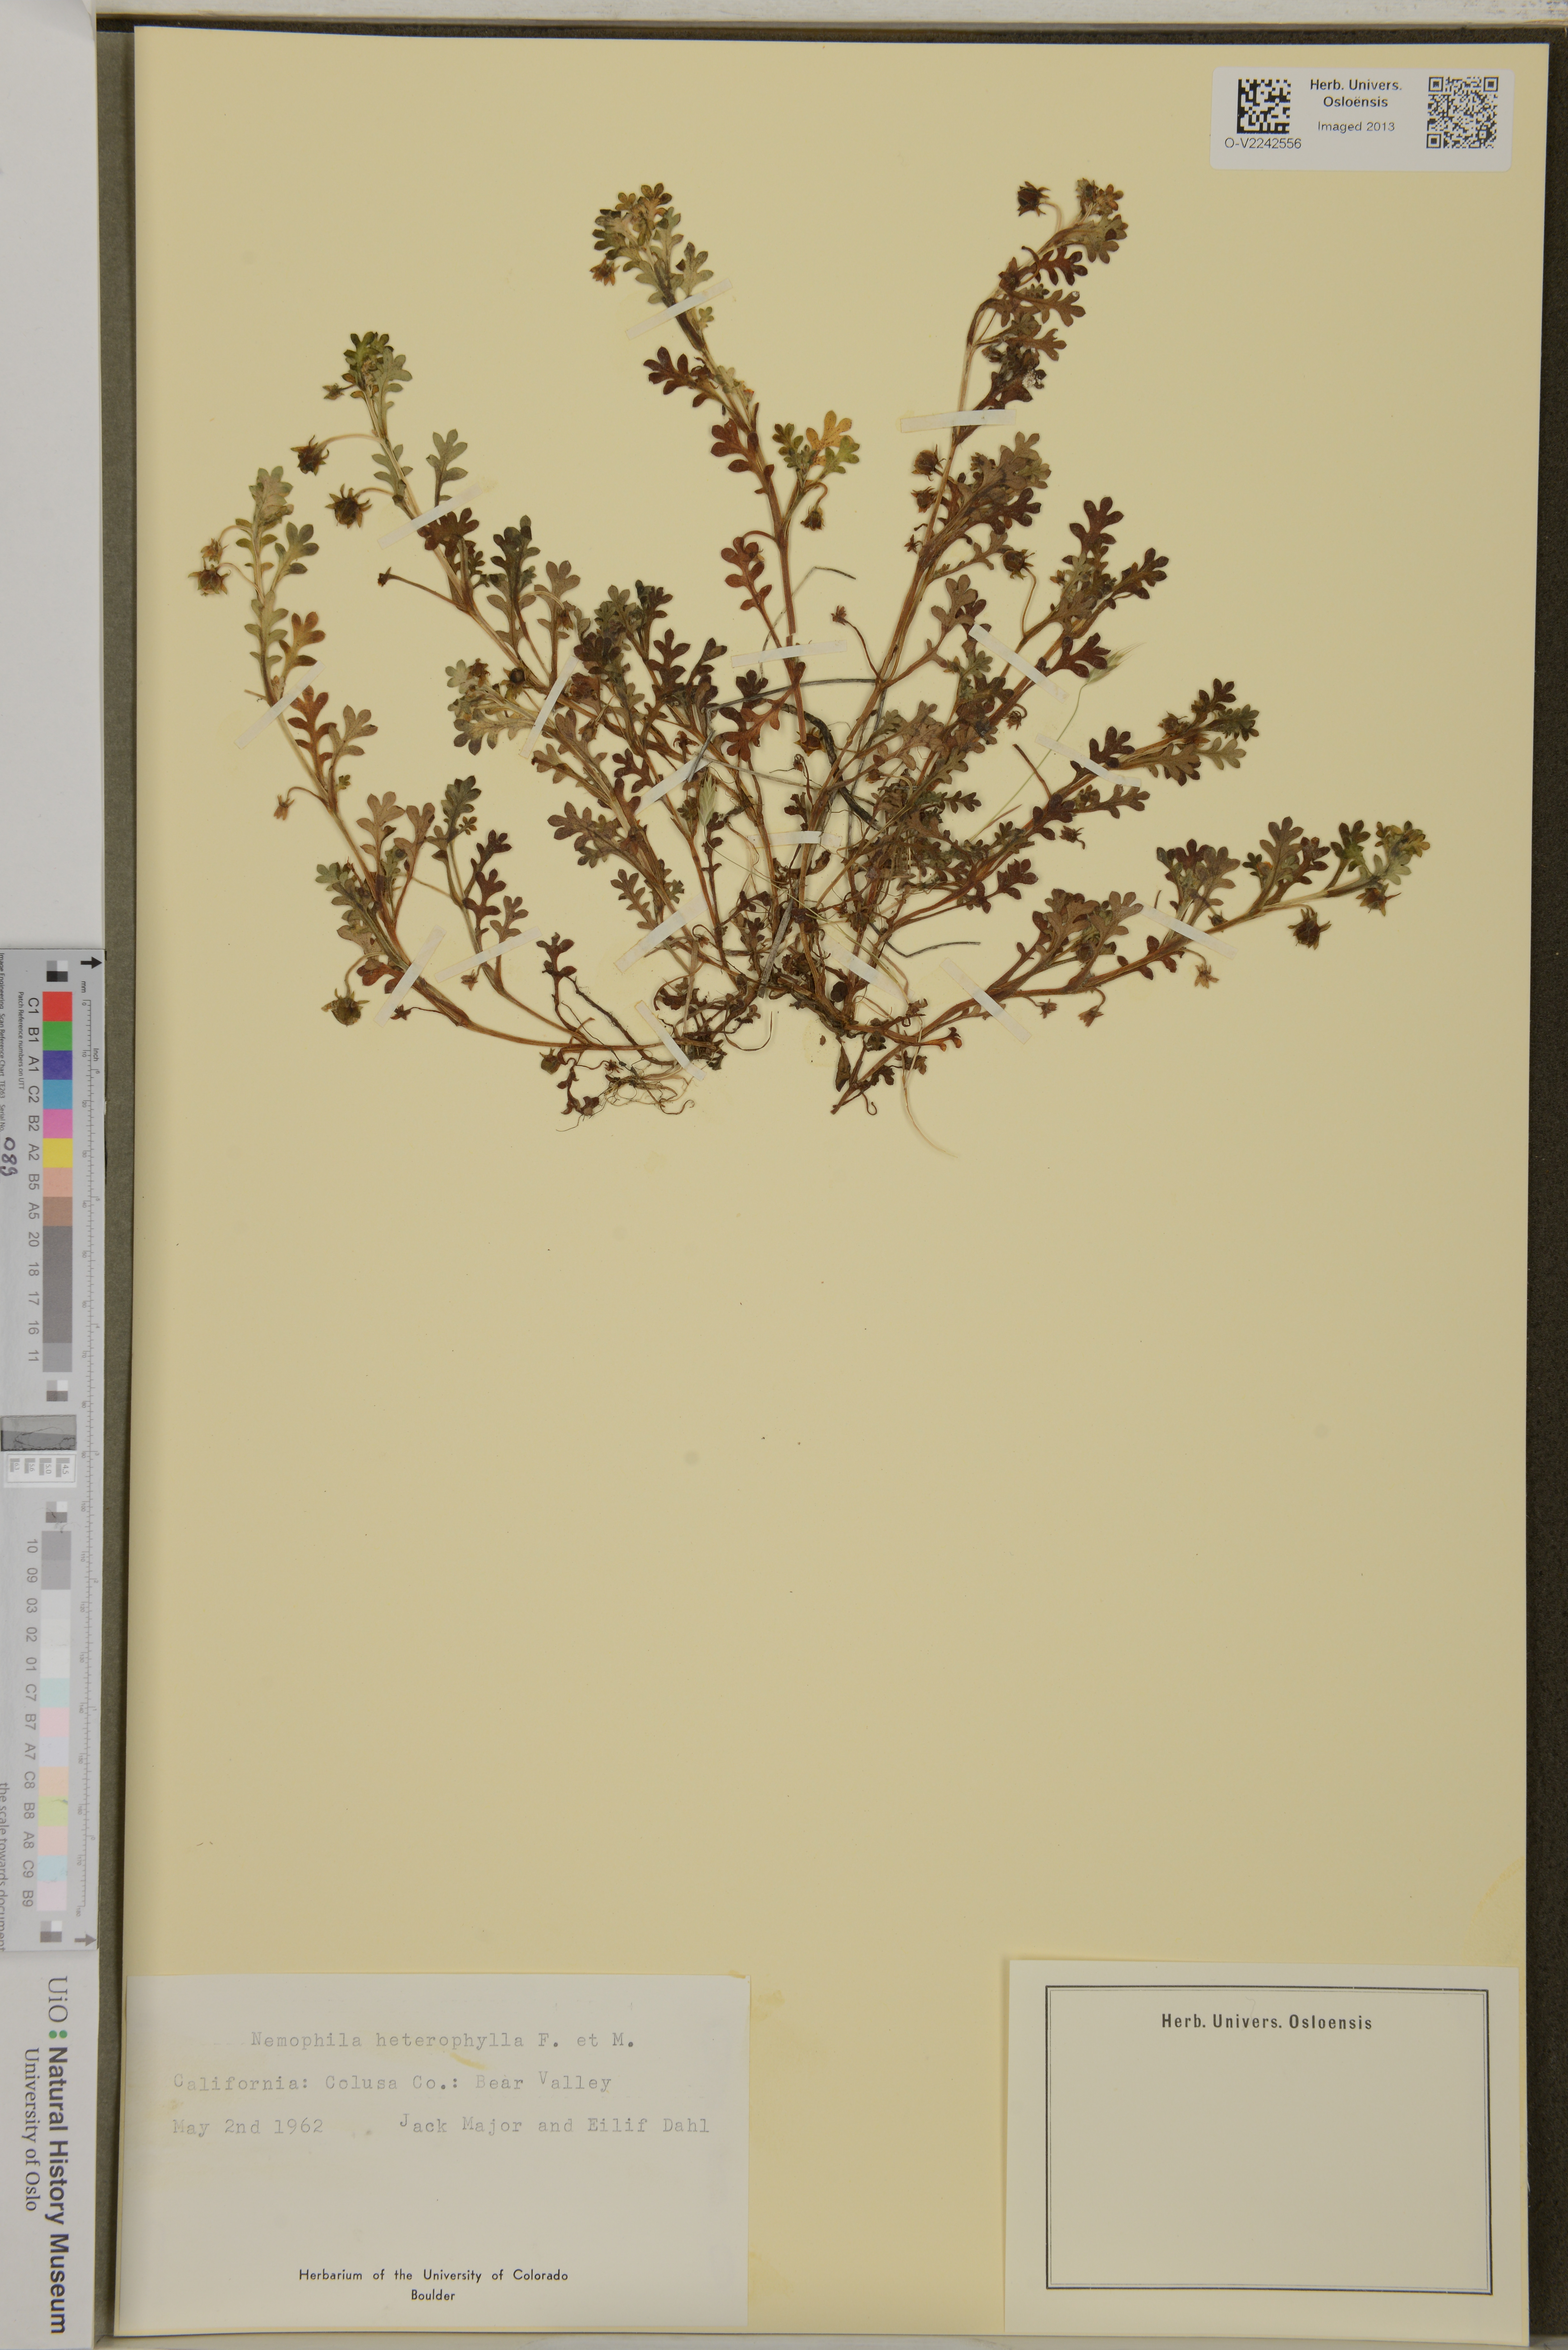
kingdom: Plantae
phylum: Tracheophyta
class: Magnoliopsida
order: Boraginales
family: Hydrophyllaceae
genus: Nemophila
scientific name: Nemophila heterophylla
